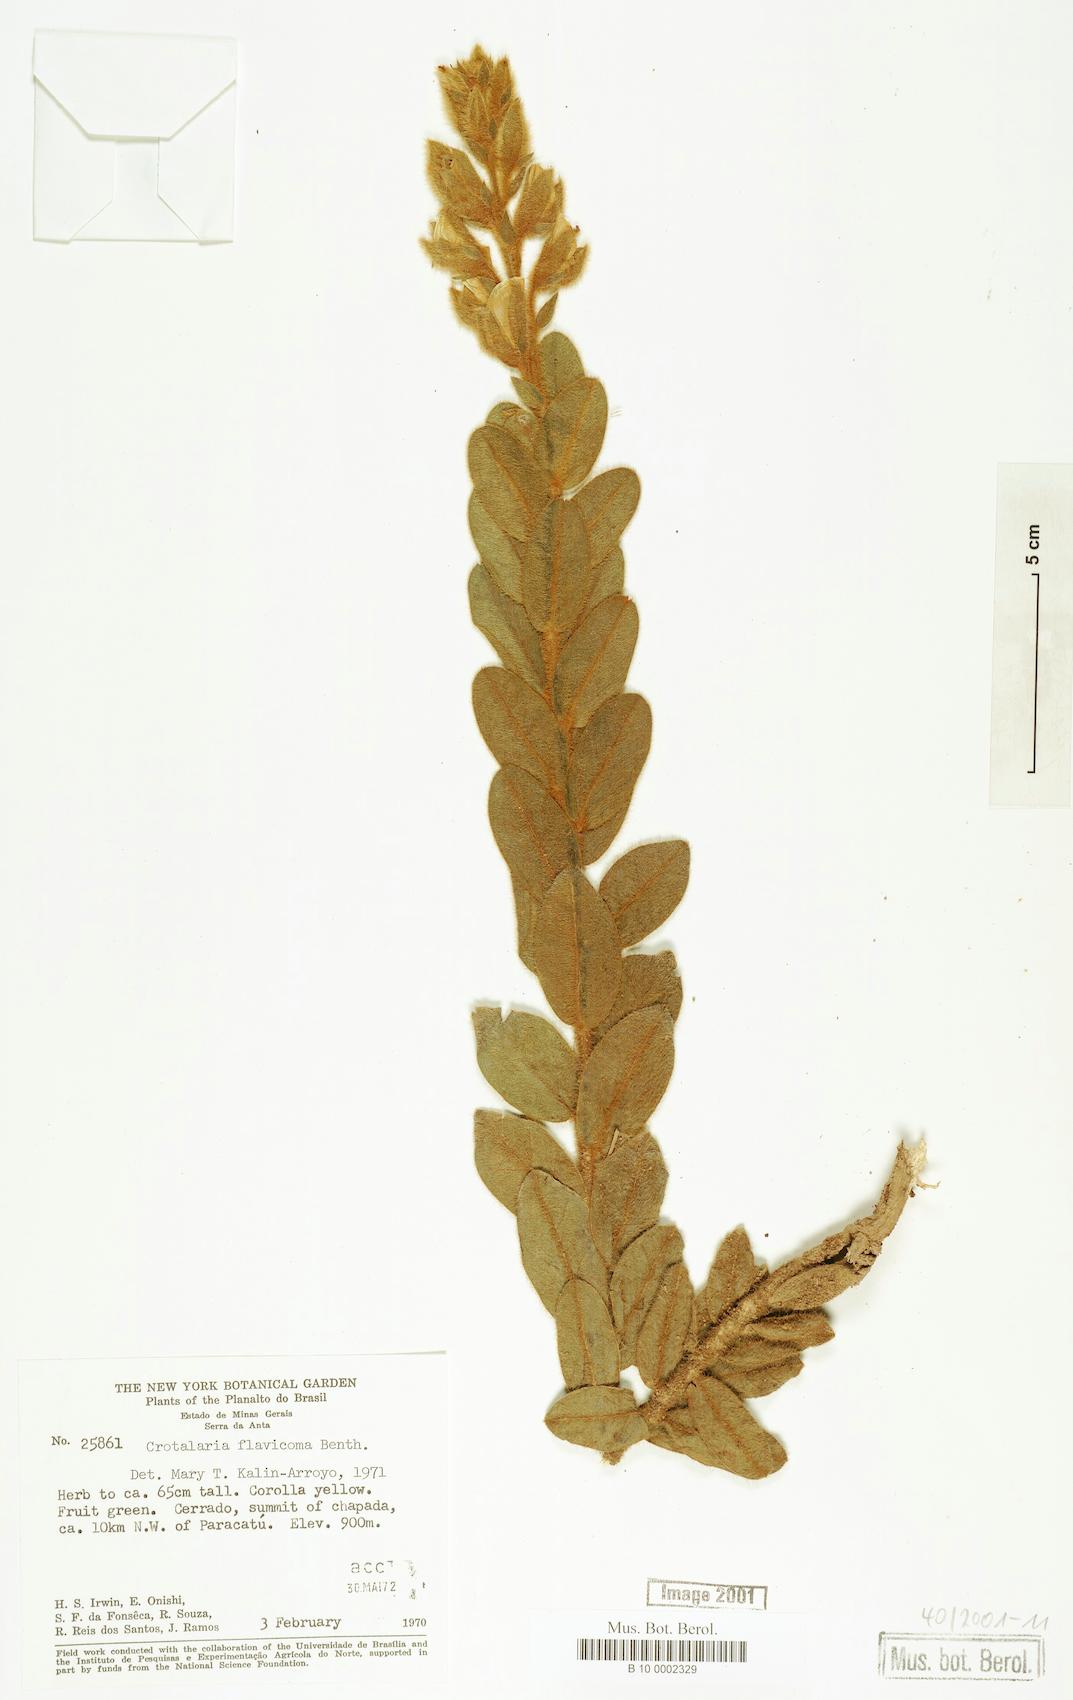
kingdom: Plantae
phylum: Tracheophyta
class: Magnoliopsida
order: Fabales
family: Fabaceae
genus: Crotalaria
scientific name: Crotalaria flavicoma
